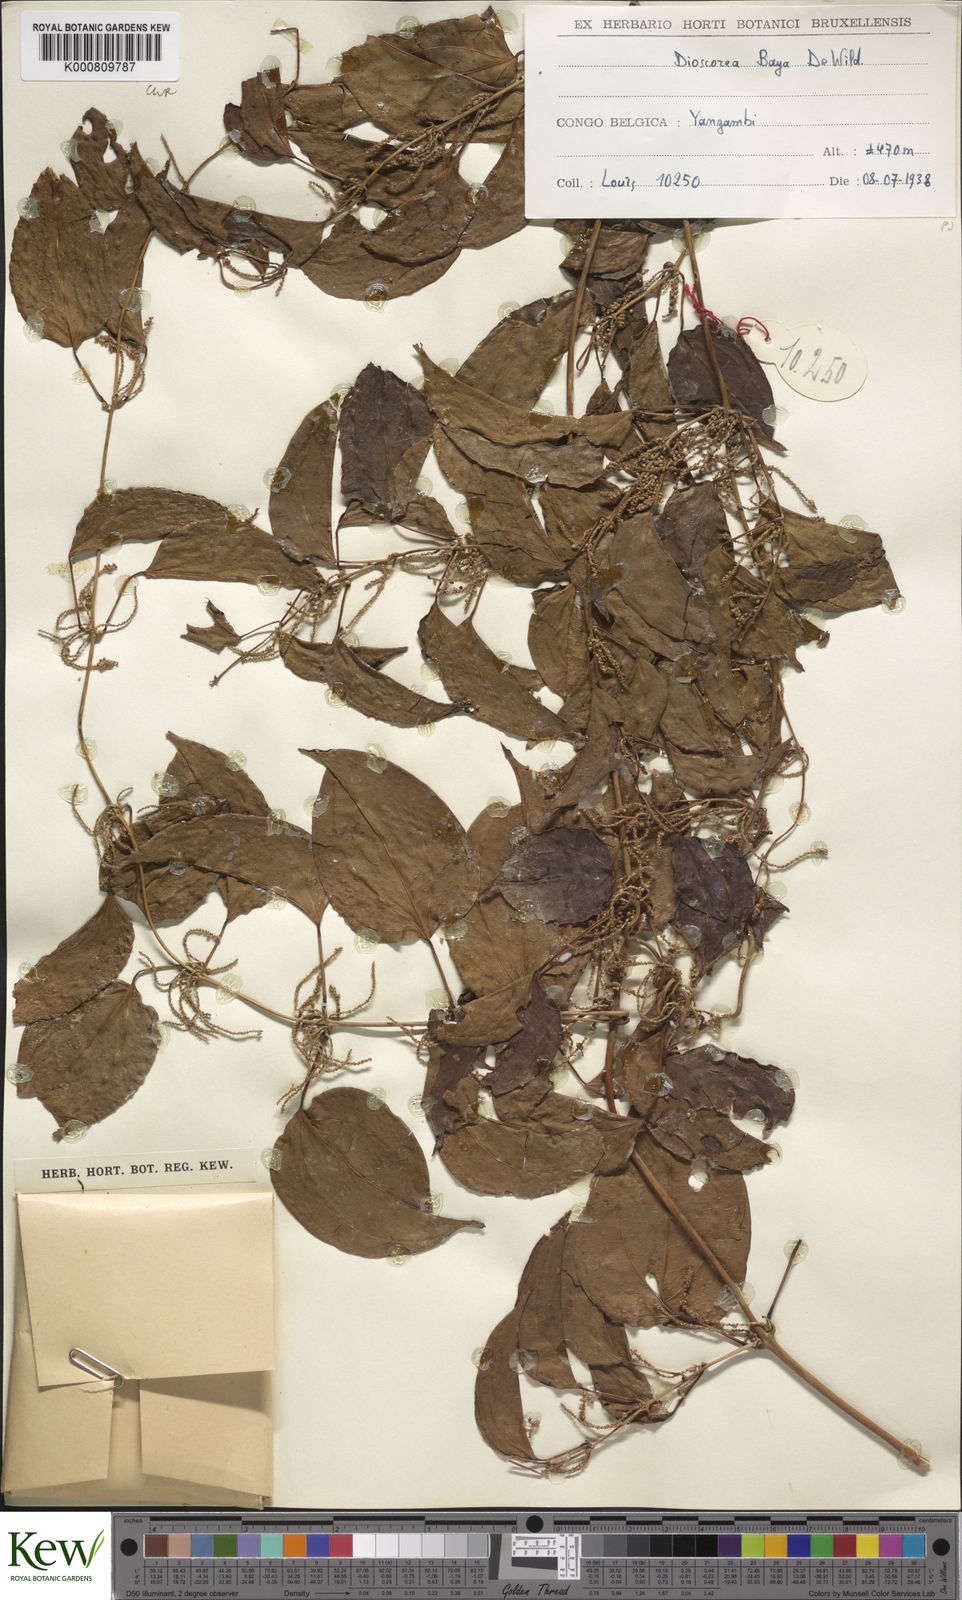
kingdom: Plantae
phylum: Tracheophyta
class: Liliopsida
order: Dioscoreales
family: Dioscoreaceae
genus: Dioscorea
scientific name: Dioscorea baya
